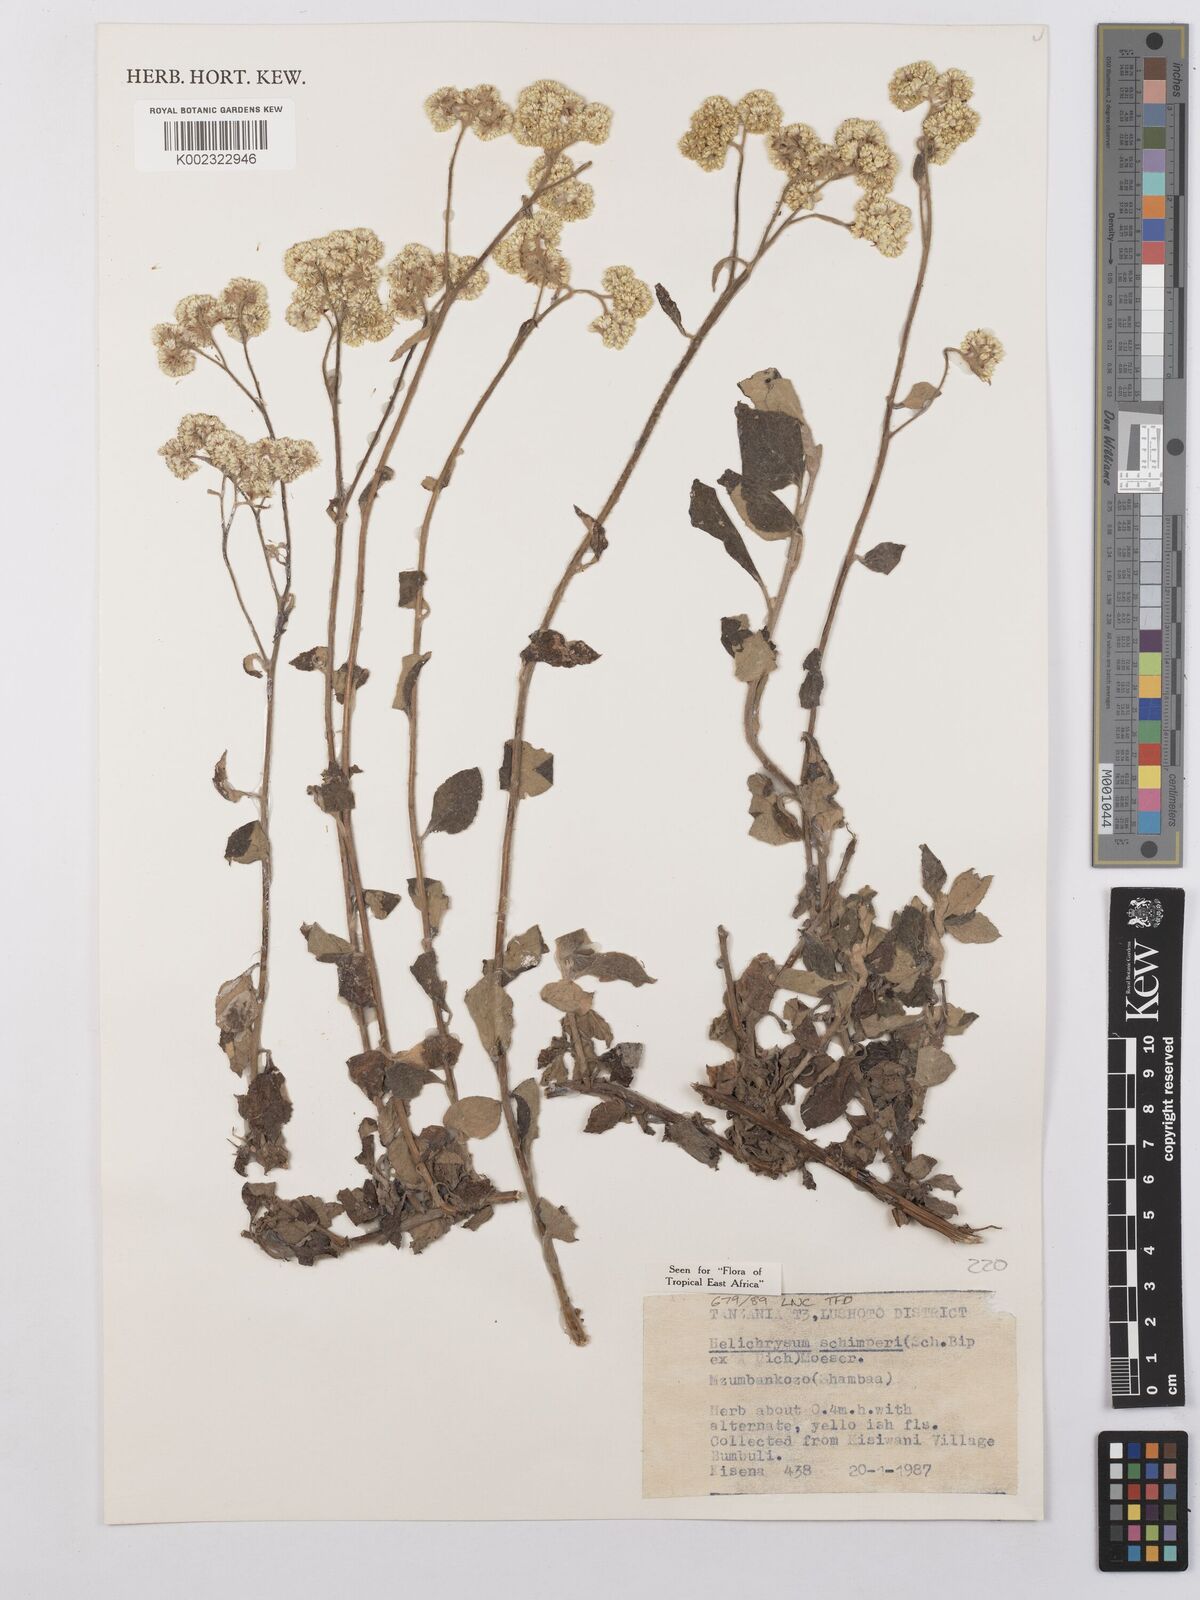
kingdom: Plantae
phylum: Tracheophyta
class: Magnoliopsida
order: Asterales
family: Asteraceae
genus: Helichrysum
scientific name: Helichrysum schimperi
